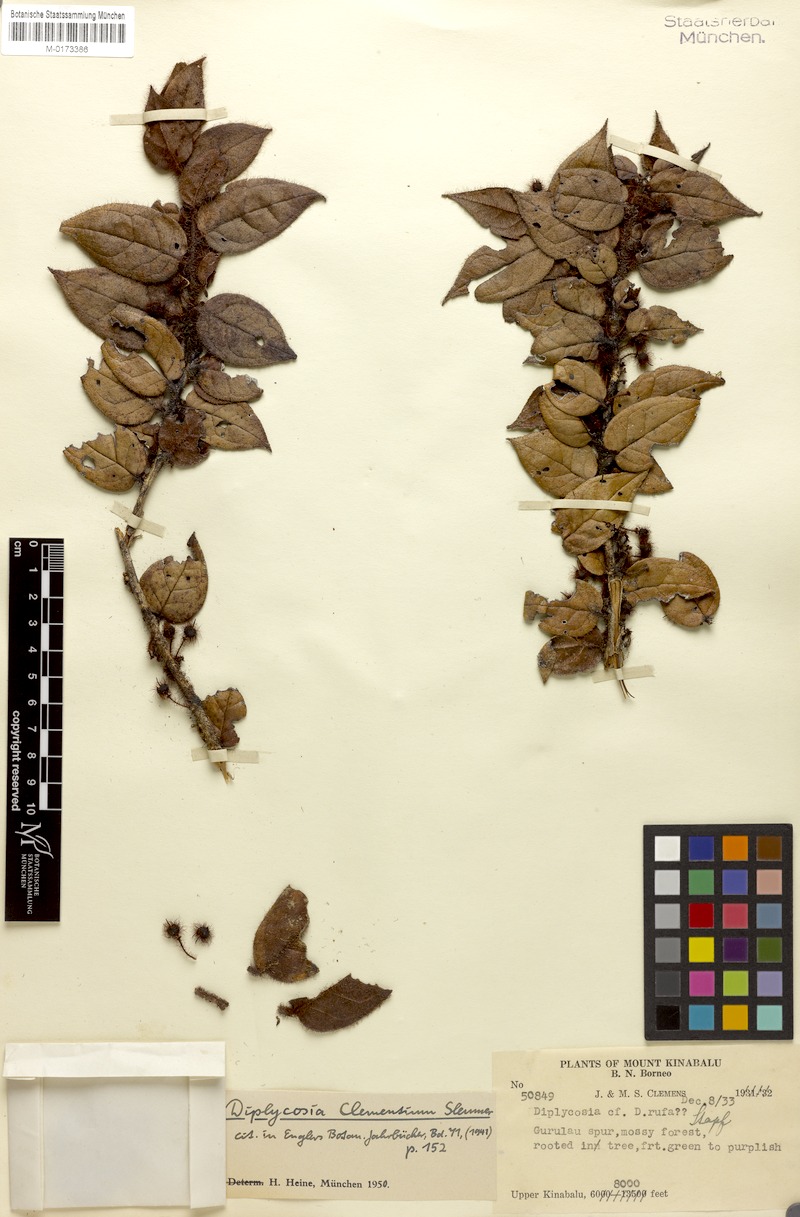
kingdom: Plantae
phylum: Tracheophyta
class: Magnoliopsida
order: Ericales
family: Ericaceae
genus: Gaultheria
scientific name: Gaultheria clementium
